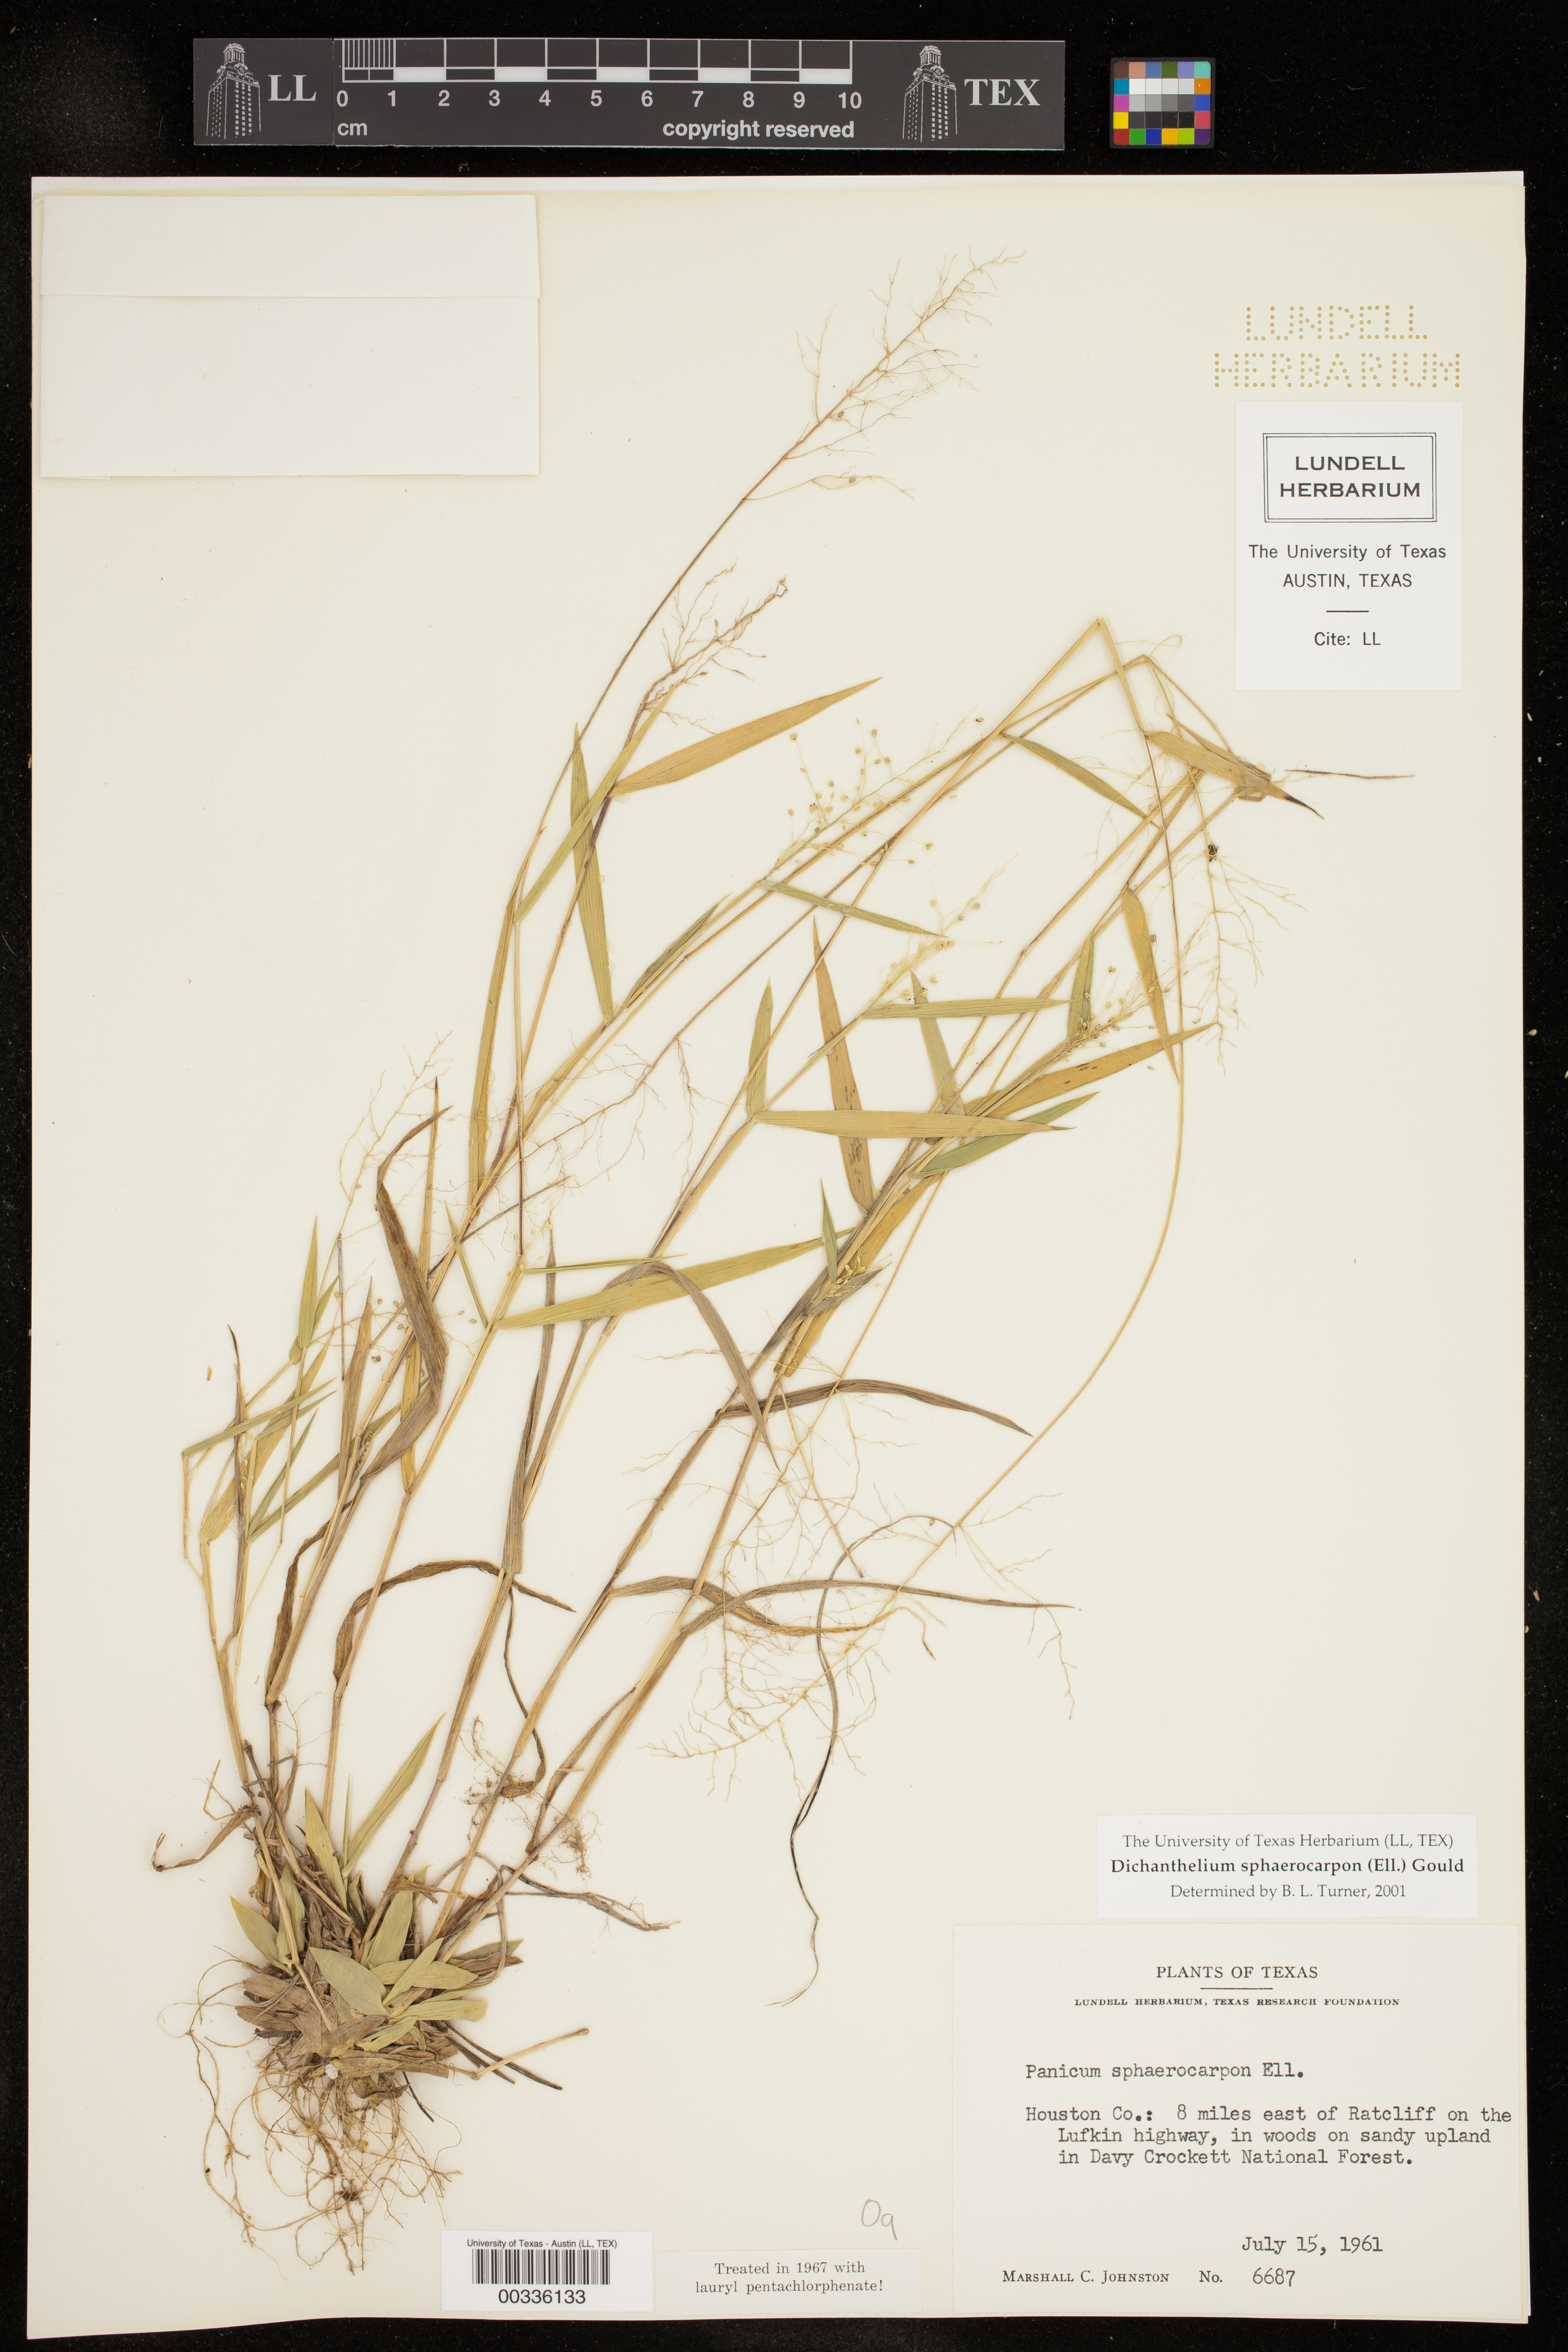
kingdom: Plantae
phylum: Tracheophyta
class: Liliopsida
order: Poales
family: Poaceae
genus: Dichanthelium
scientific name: Dichanthelium sphaerocarpon
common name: Round-fruited panicgrass
